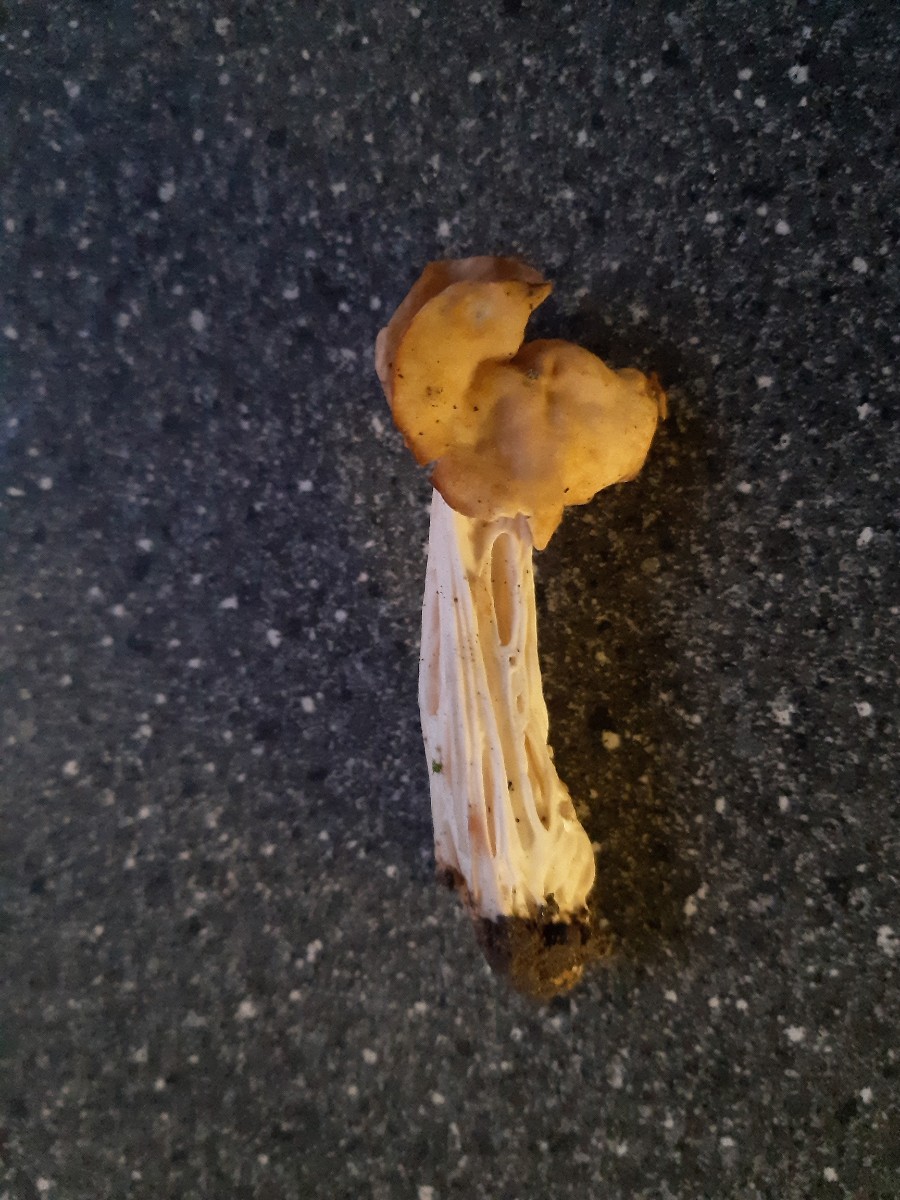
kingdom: Fungi
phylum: Ascomycota
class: Pezizomycetes
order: Pezizales
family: Helvellaceae
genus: Helvella
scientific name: Helvella crispa
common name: kruset foldhat
